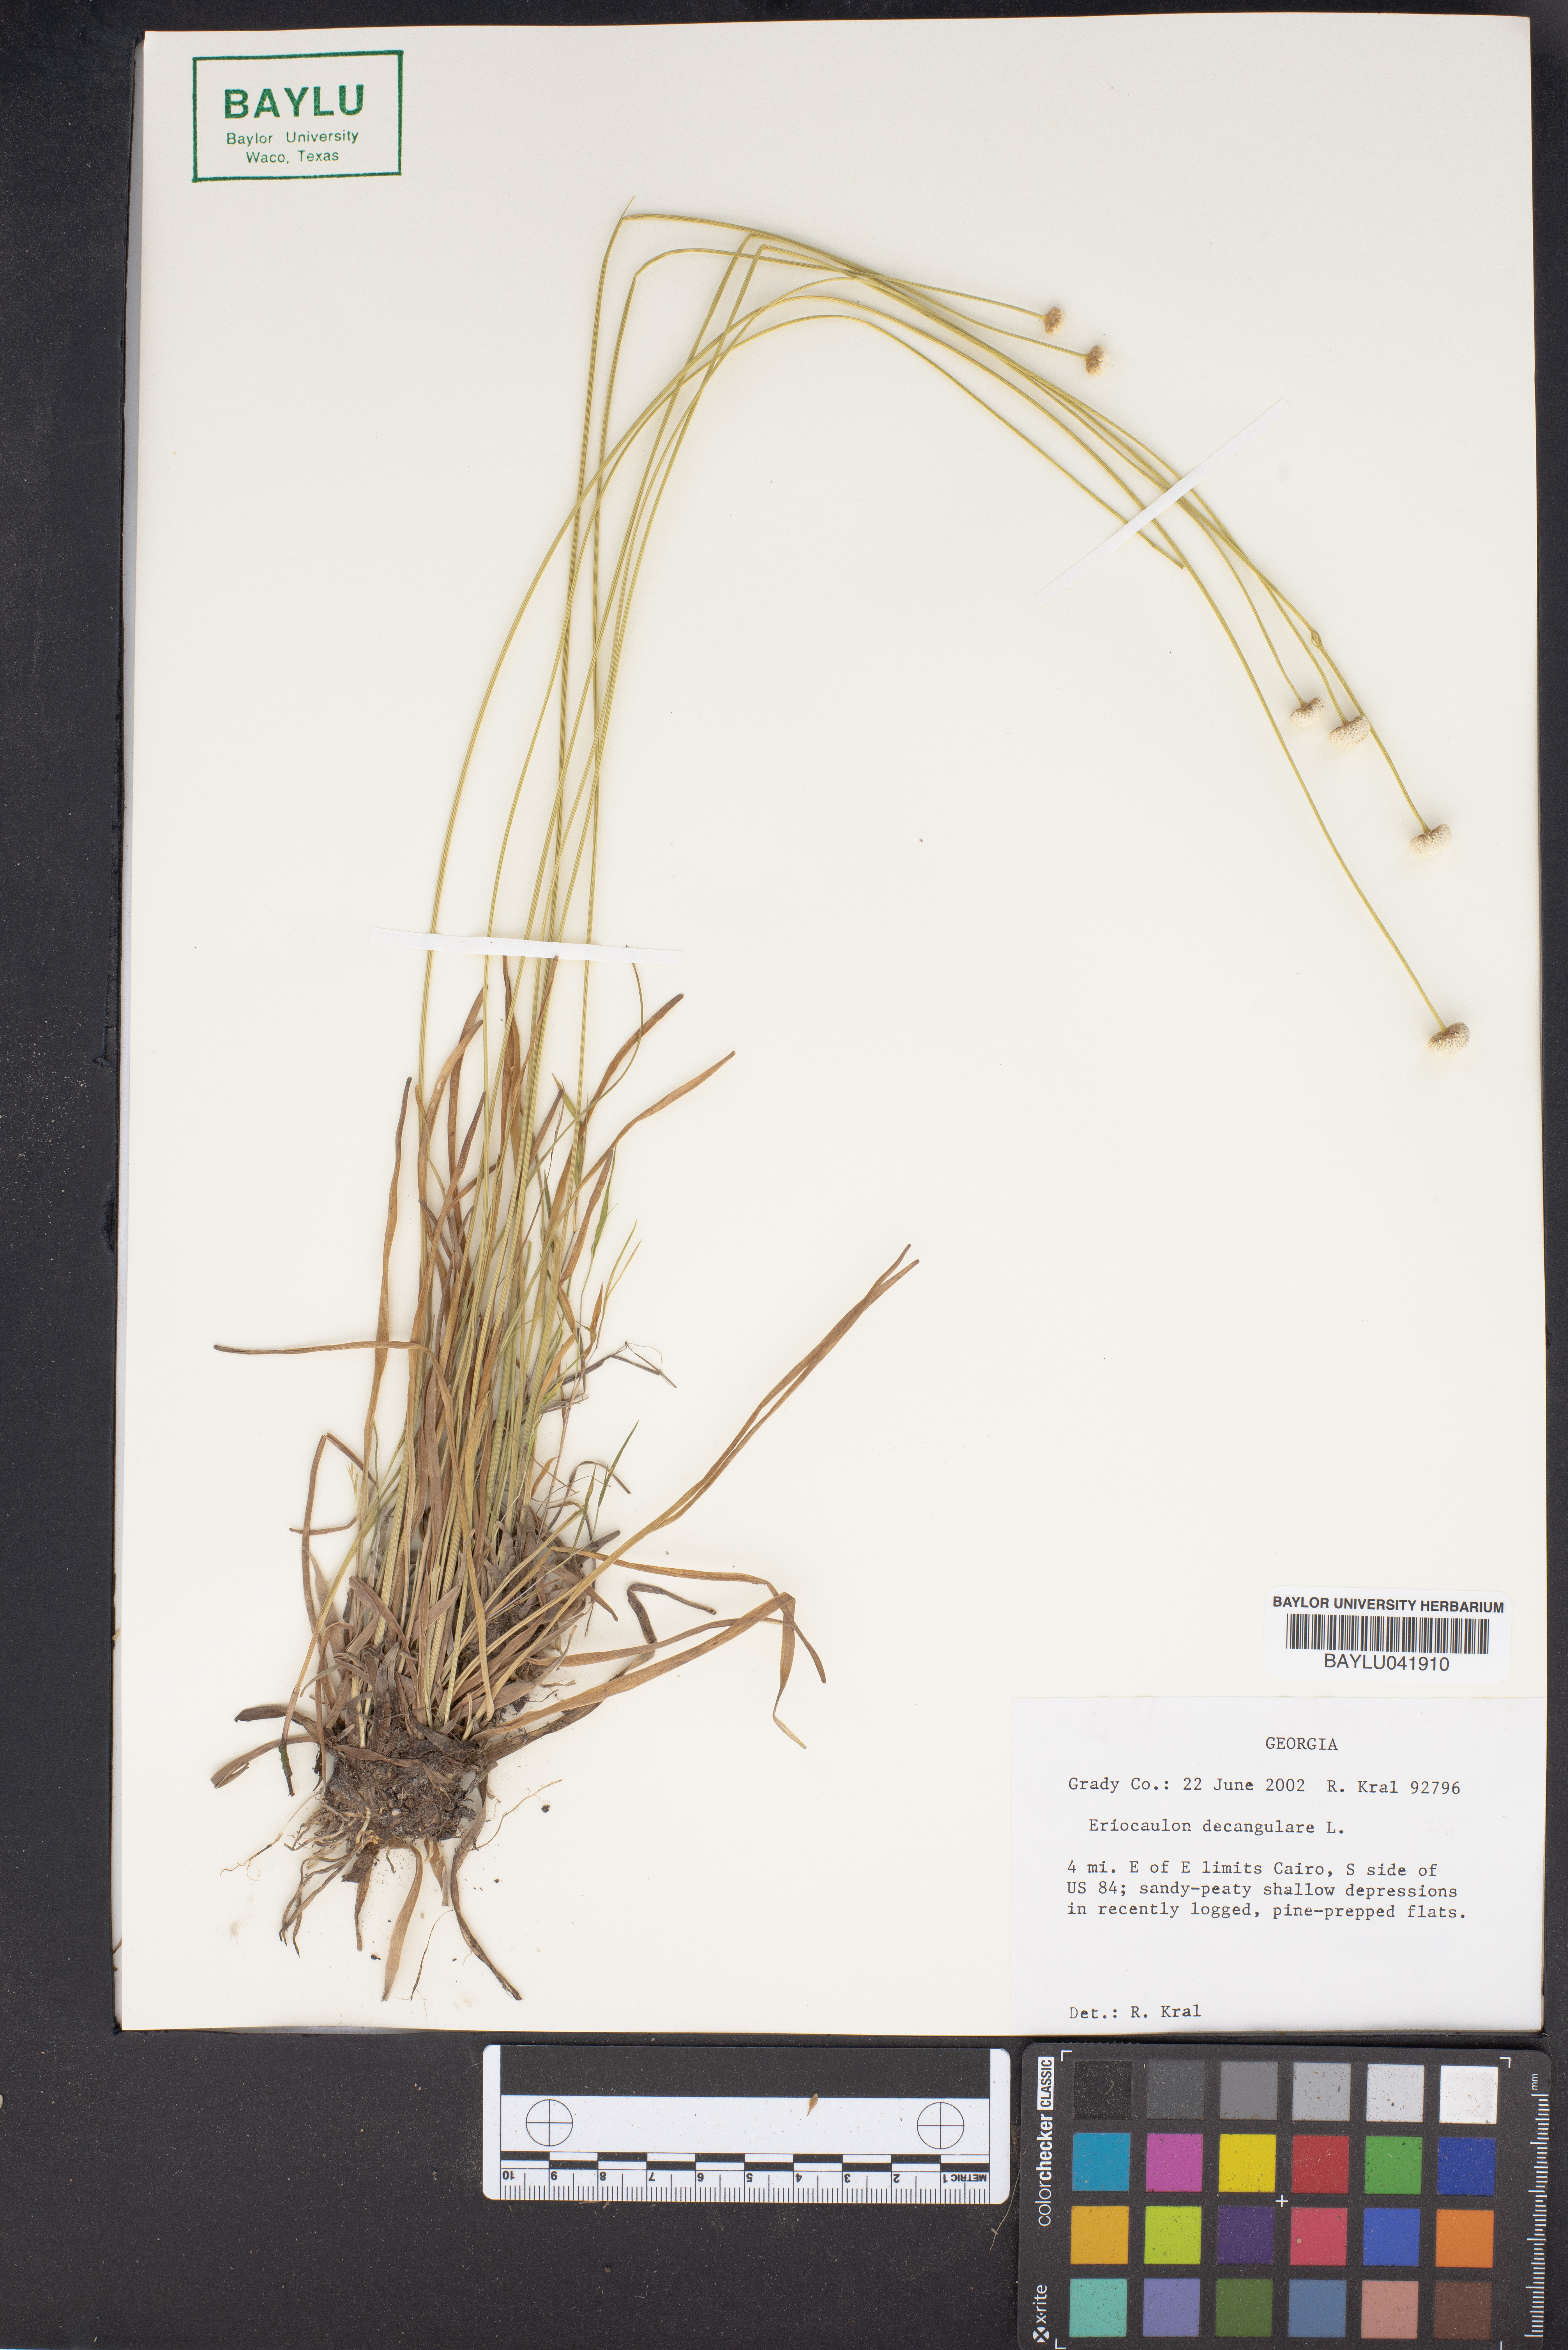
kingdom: Plantae
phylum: Tracheophyta
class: Liliopsida
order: Poales
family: Eriocaulaceae
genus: Eriocaulon
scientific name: Eriocaulon decangulare
